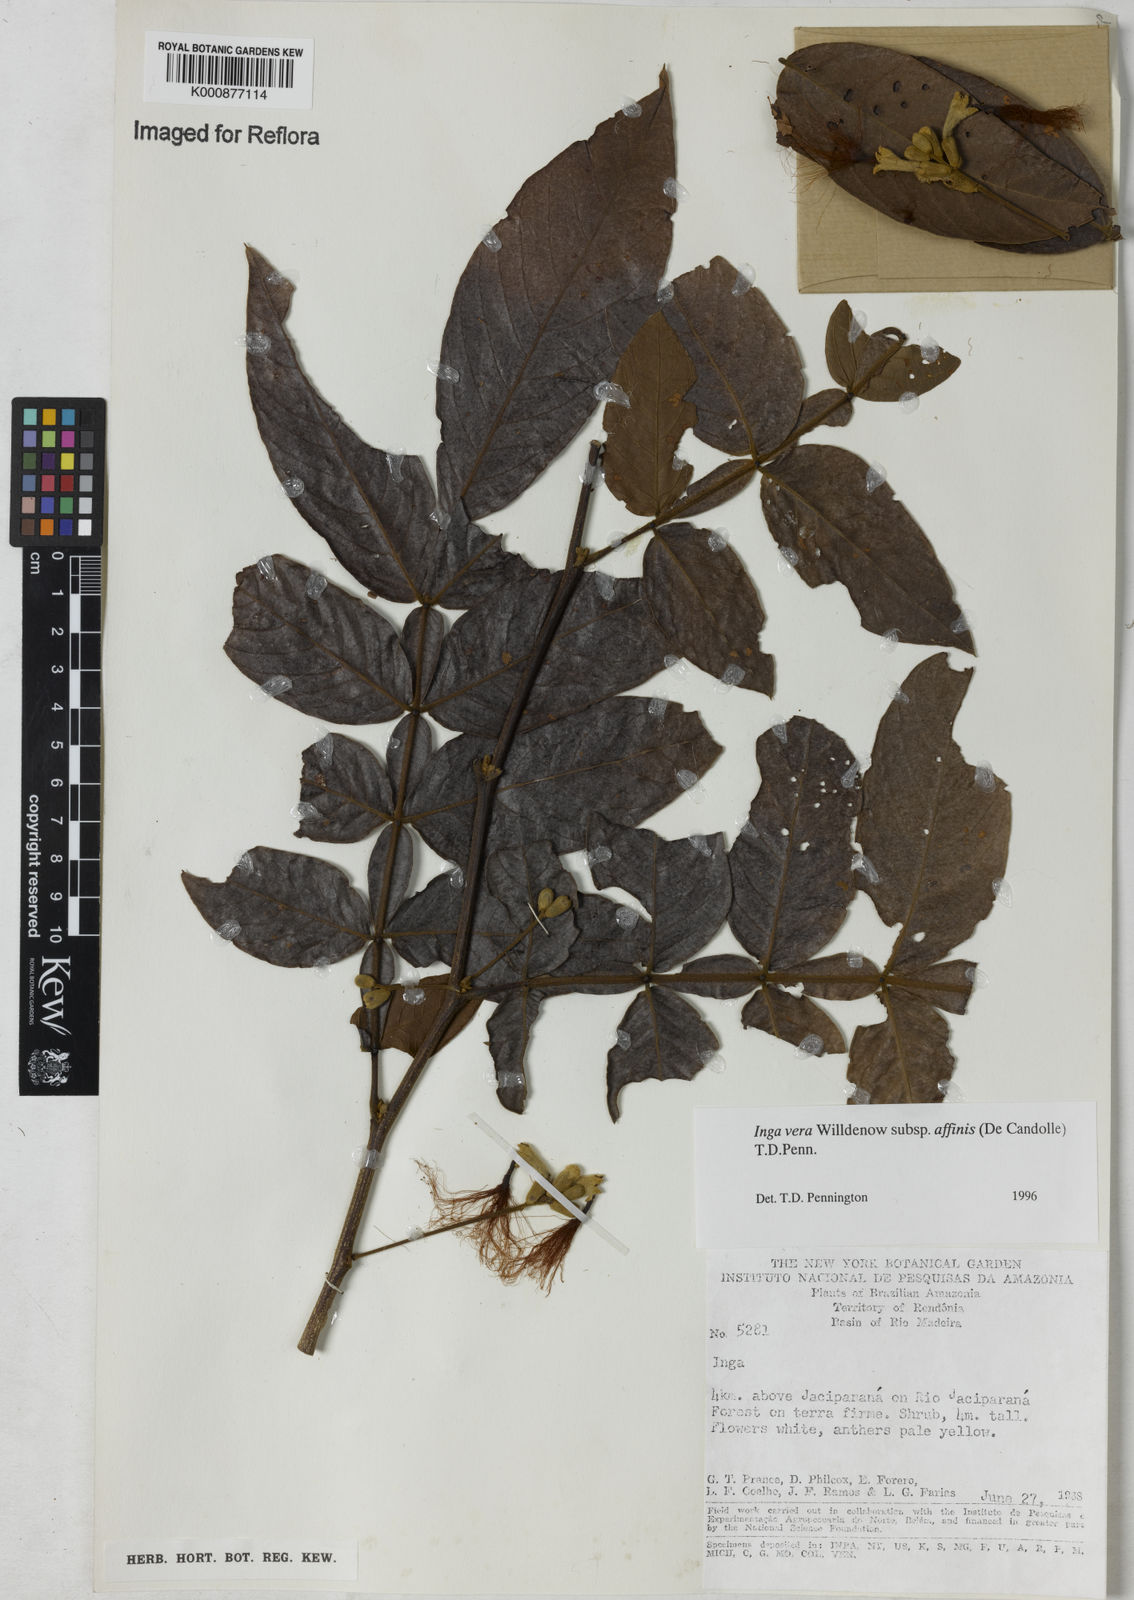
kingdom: Plantae
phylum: Tracheophyta
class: Magnoliopsida
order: Fabales
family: Fabaceae
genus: Inga
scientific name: Inga affinis
